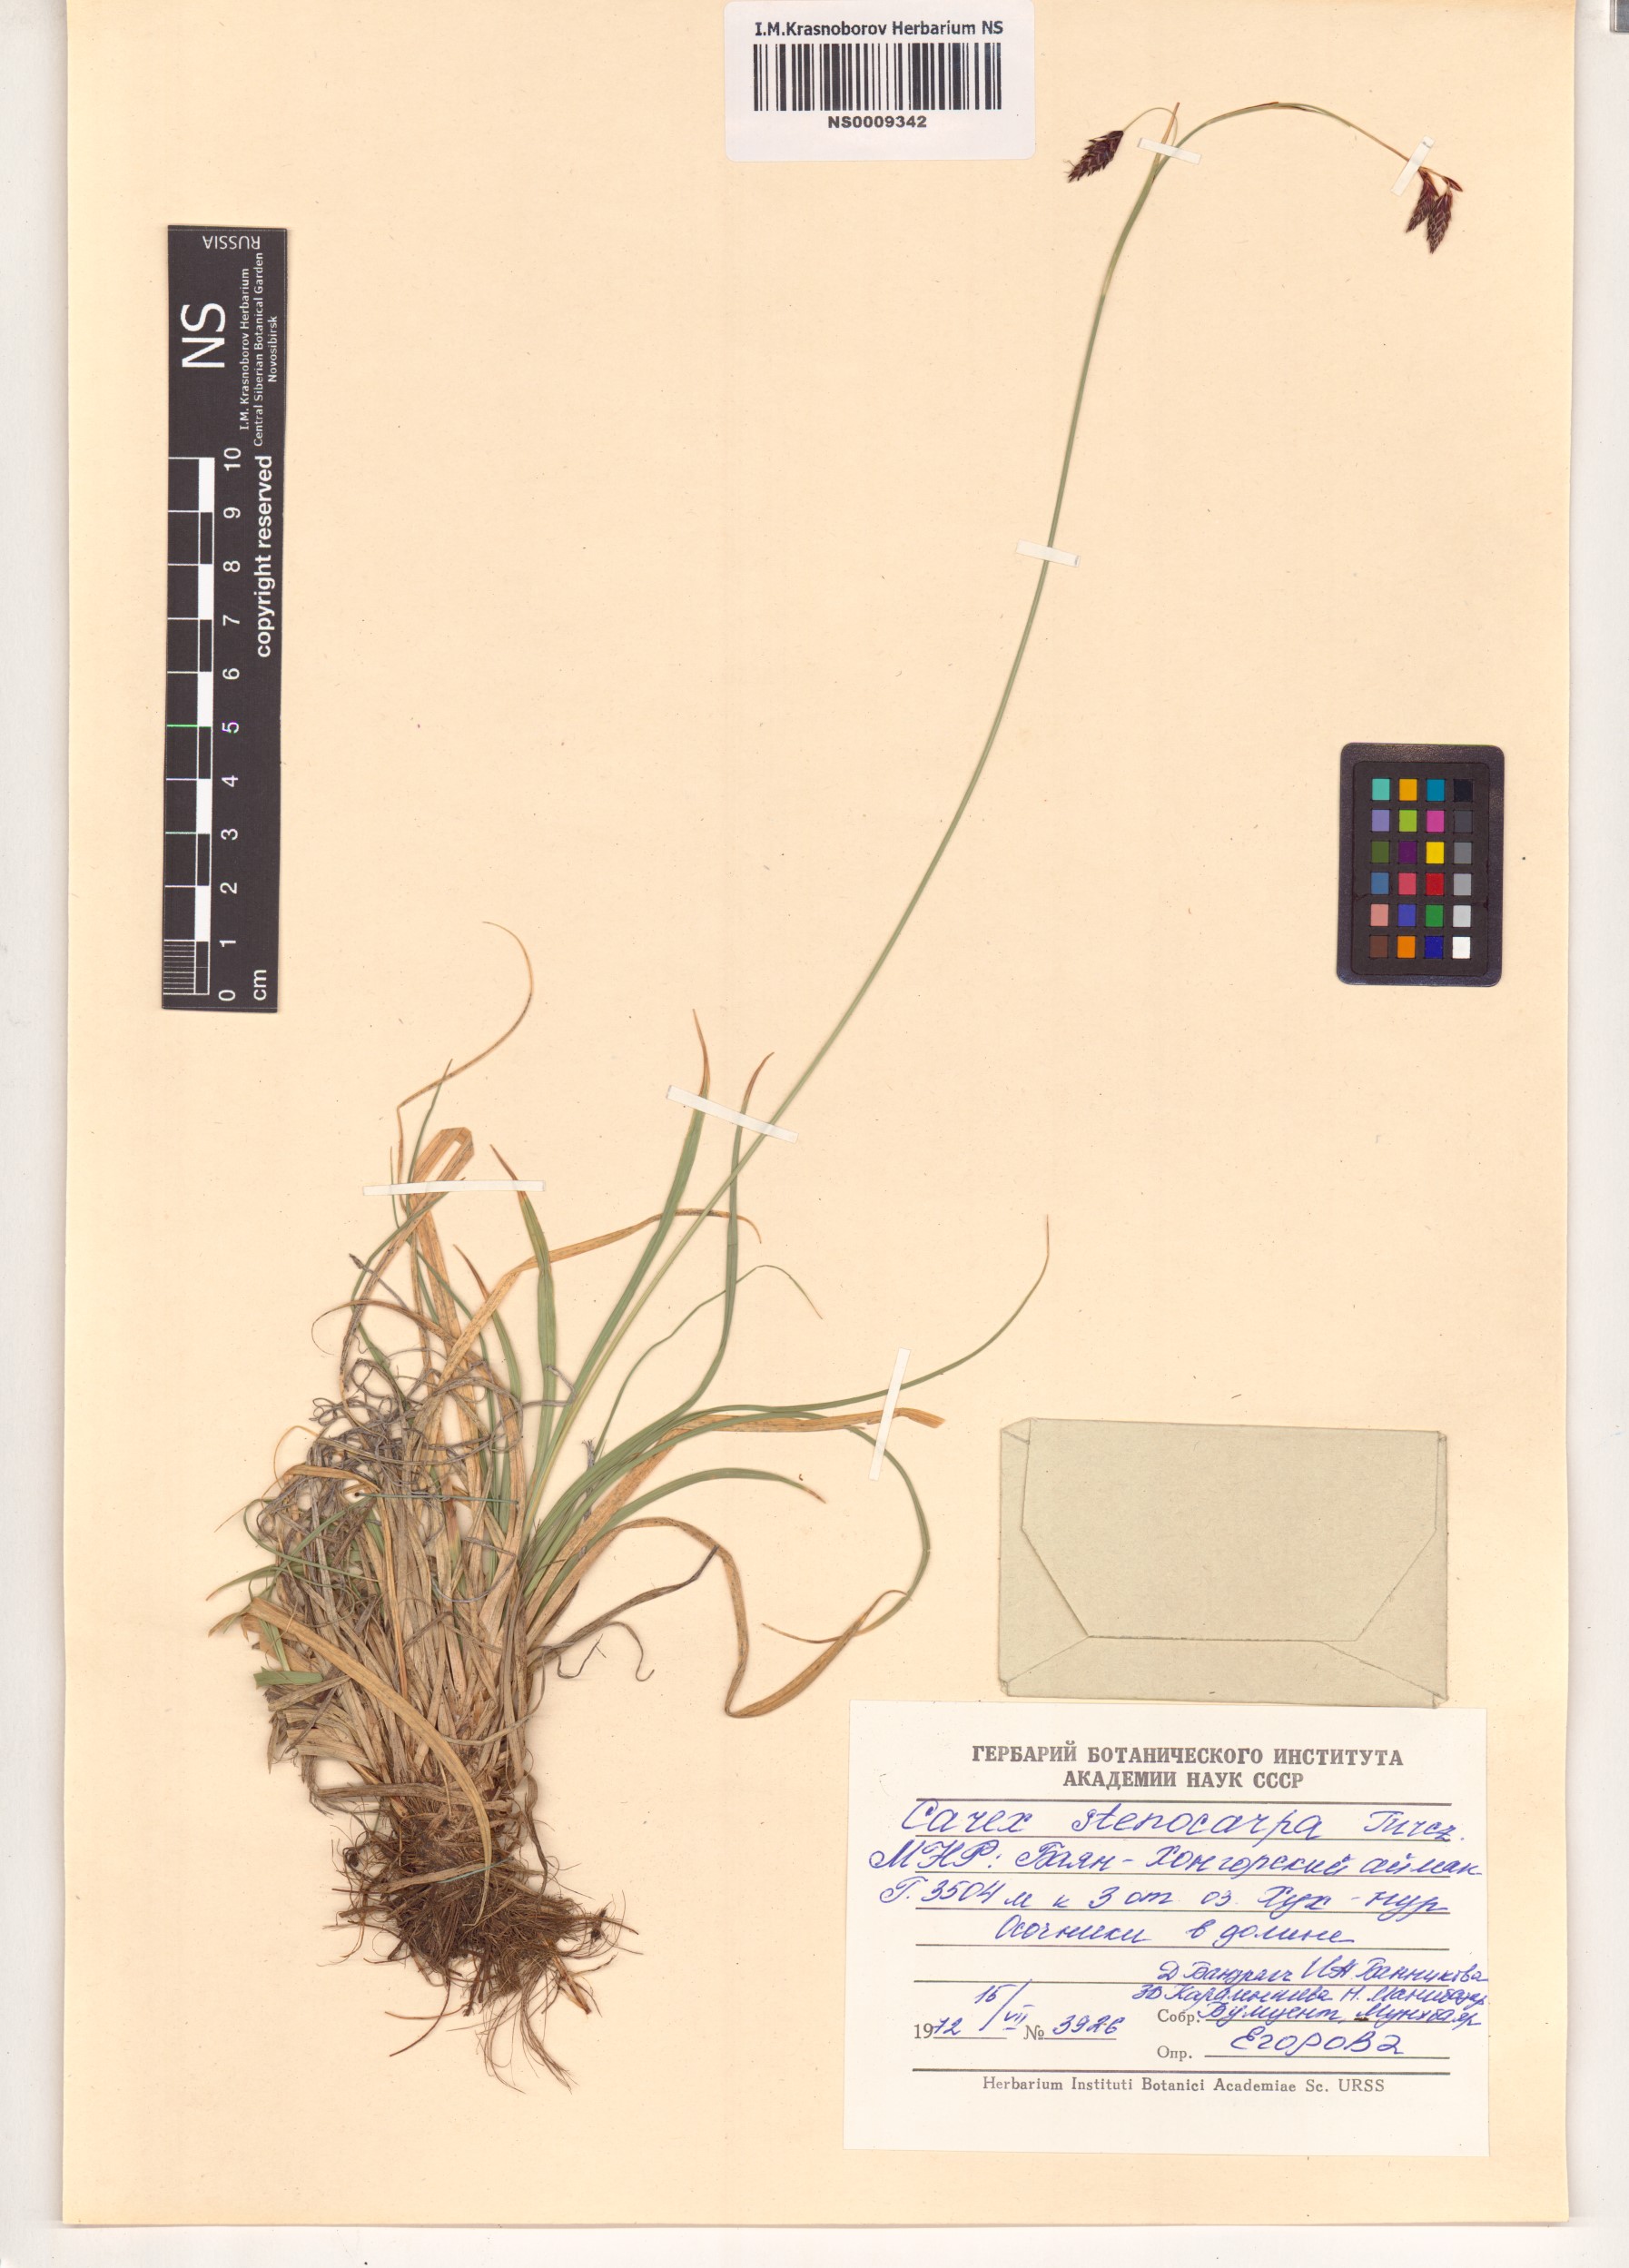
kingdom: Plantae
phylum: Tracheophyta
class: Liliopsida
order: Poales
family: Cyperaceae
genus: Carex
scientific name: Carex stenocarpa
